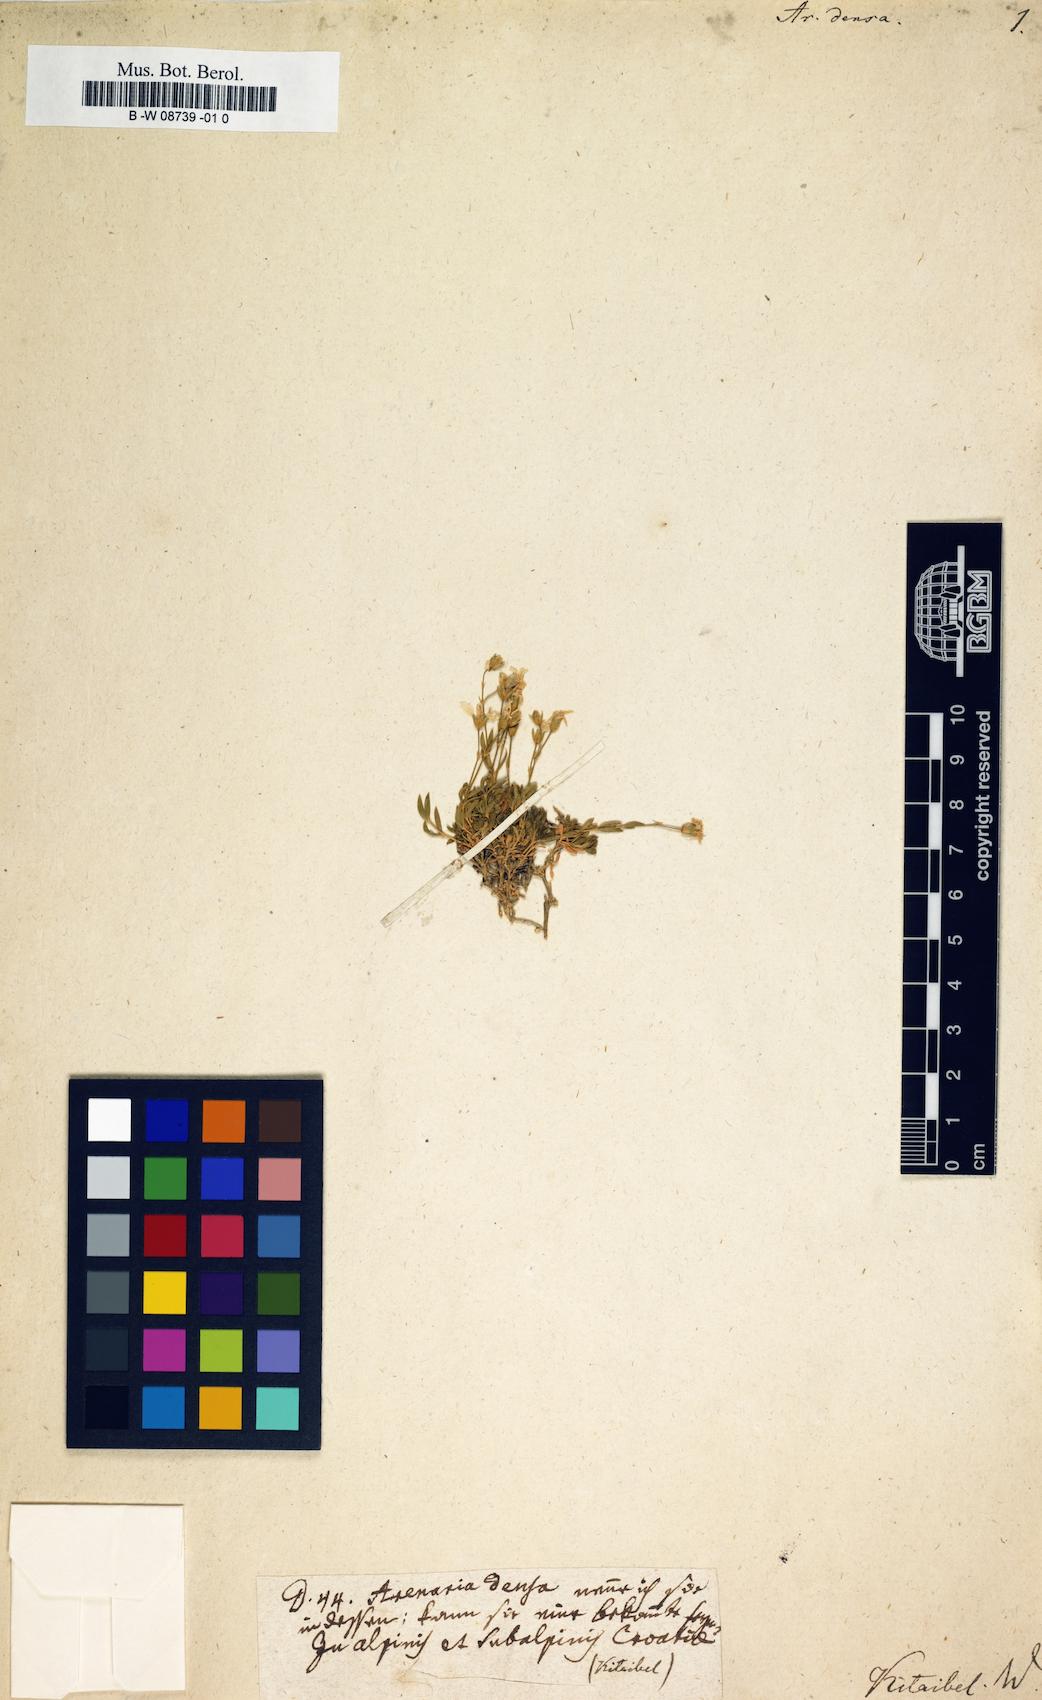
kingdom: Plantae
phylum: Tracheophyta
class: Magnoliopsida
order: Caryophyllales
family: Caryophyllaceae
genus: Arenaria
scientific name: Arenaria gracilis
